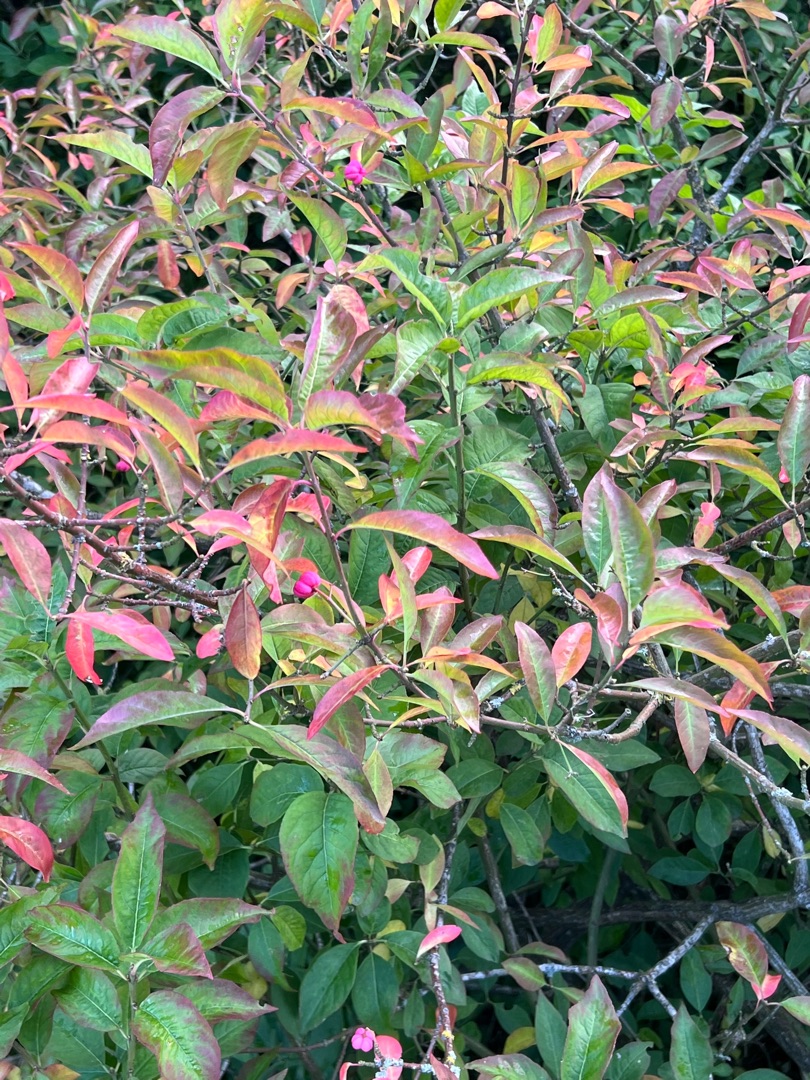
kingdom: Plantae
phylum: Tracheophyta
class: Magnoliopsida
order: Celastrales
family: Celastraceae
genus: Euonymus
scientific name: Euonymus europaeus
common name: Benved
